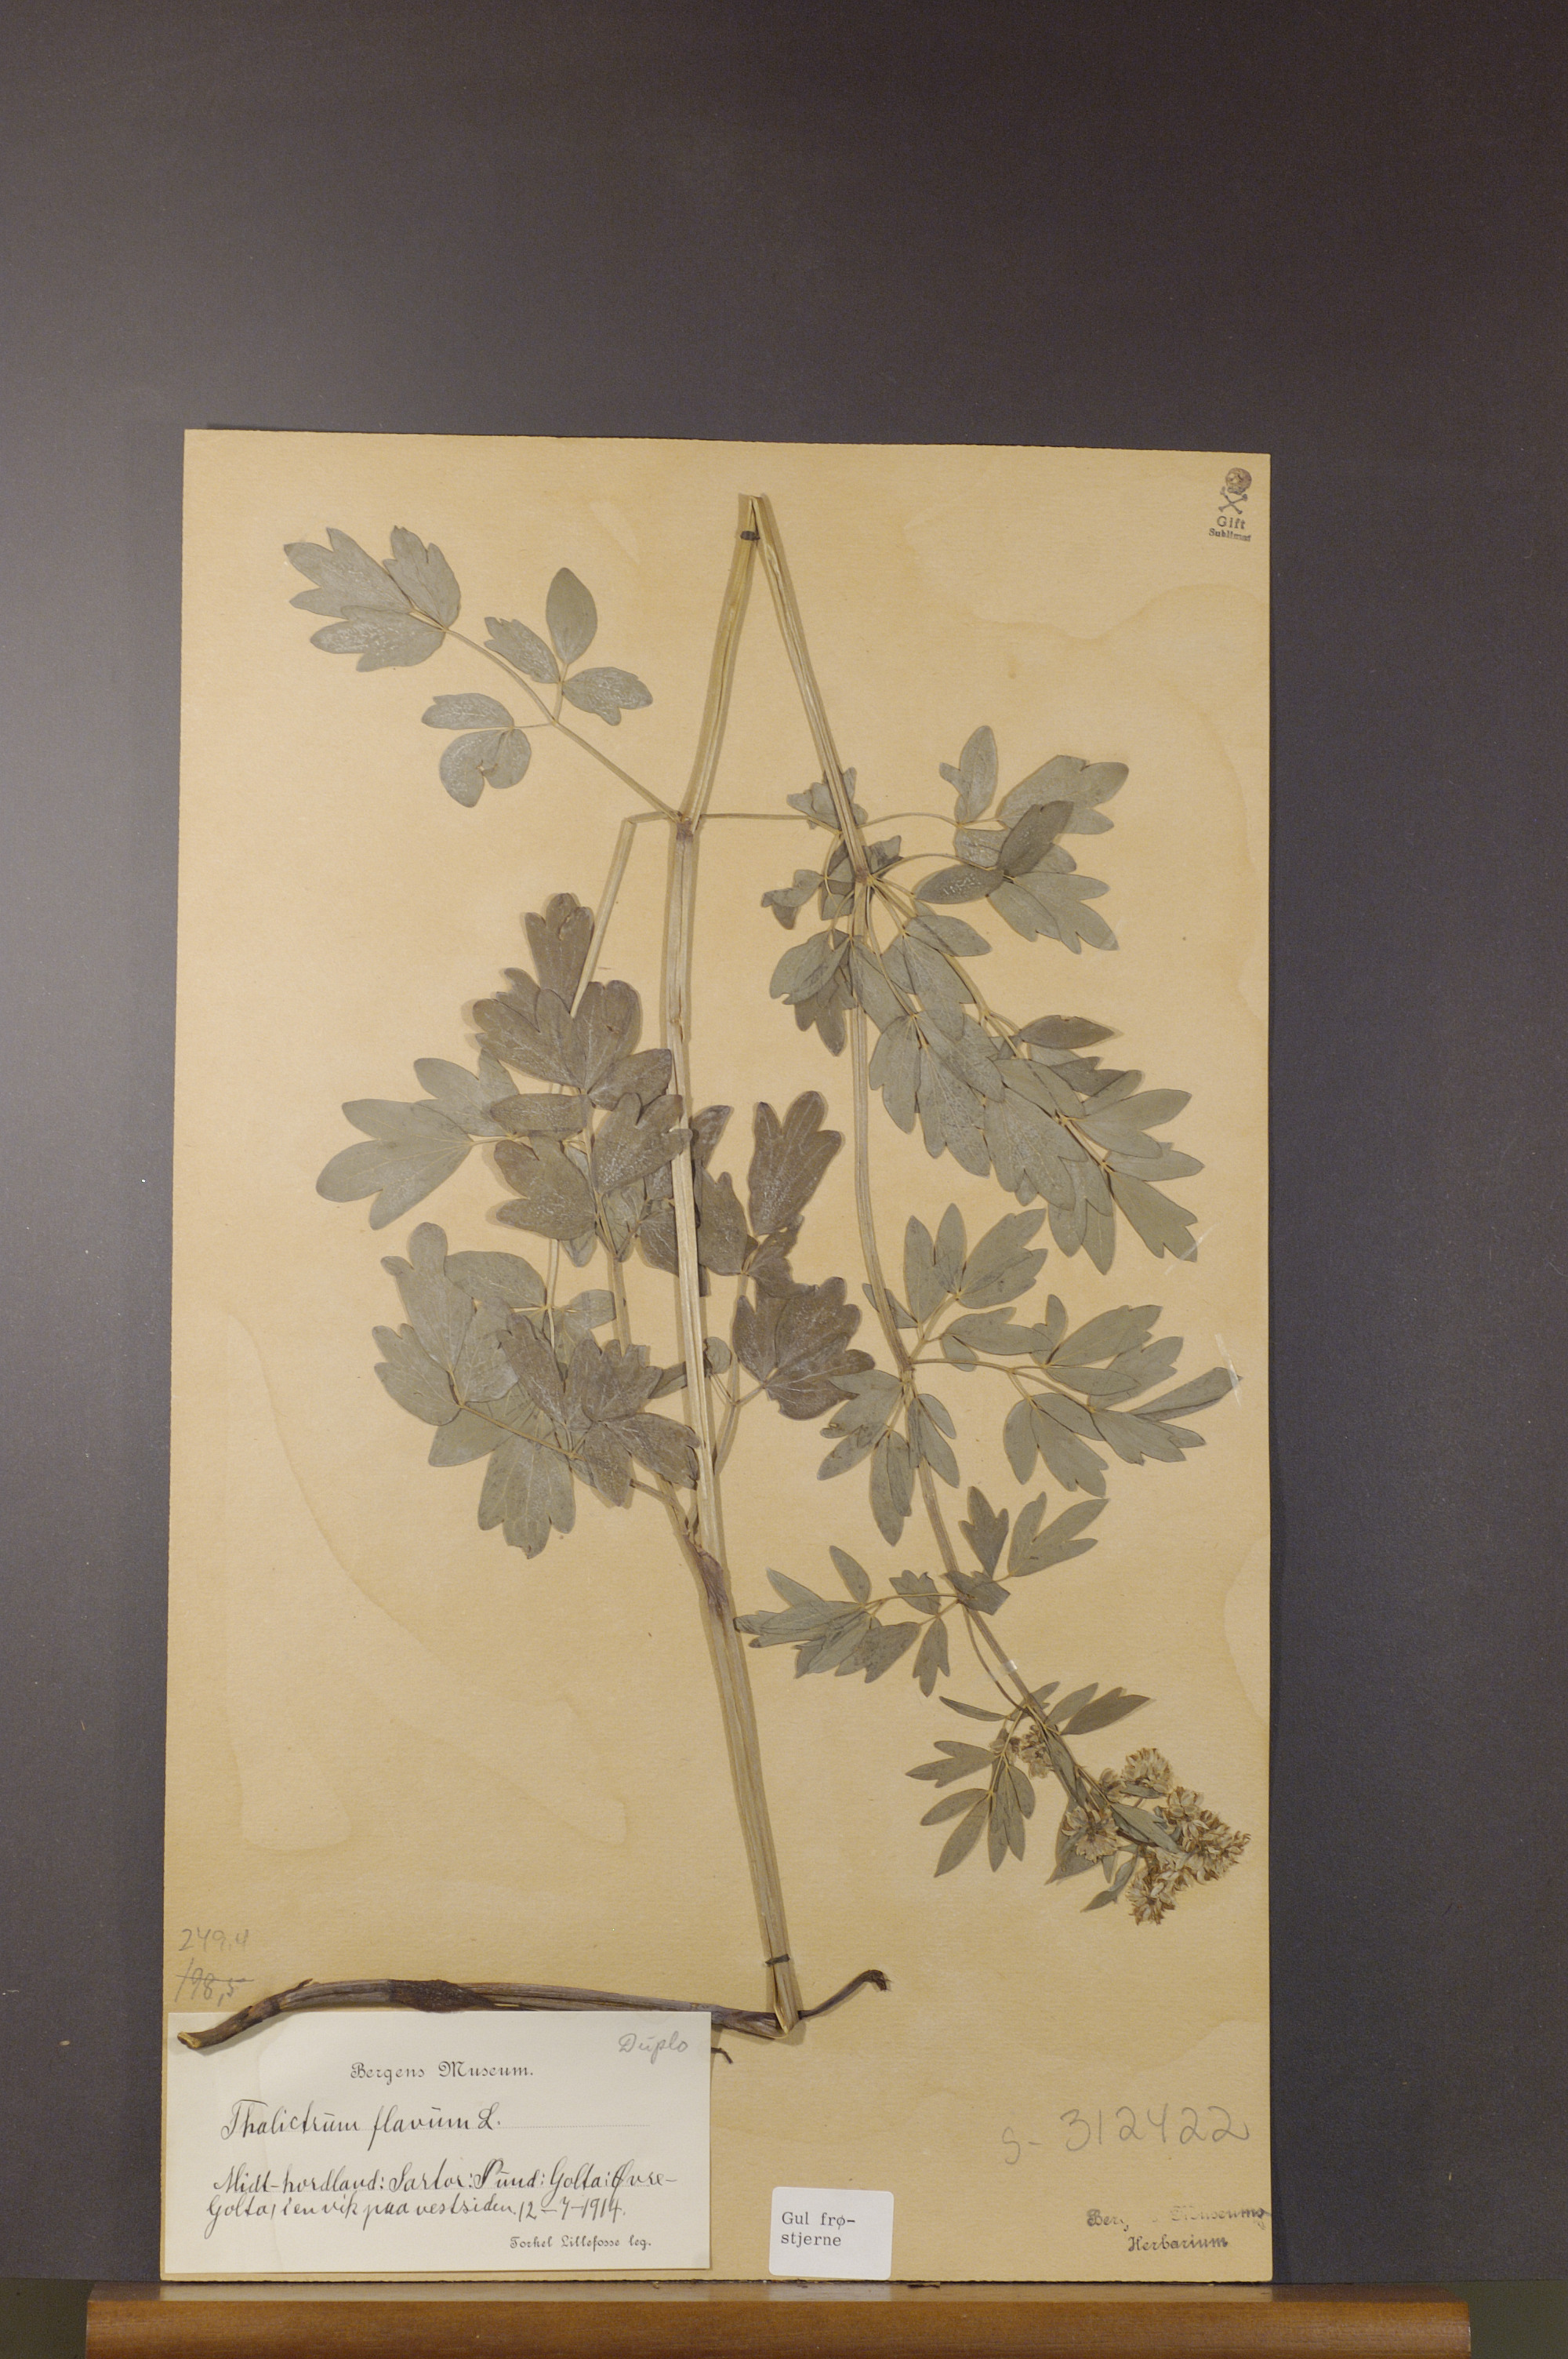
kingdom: Plantae
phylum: Tracheophyta
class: Magnoliopsida
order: Ranunculales
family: Ranunculaceae
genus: Thalictrum
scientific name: Thalictrum flavum
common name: Common meadow-rue
